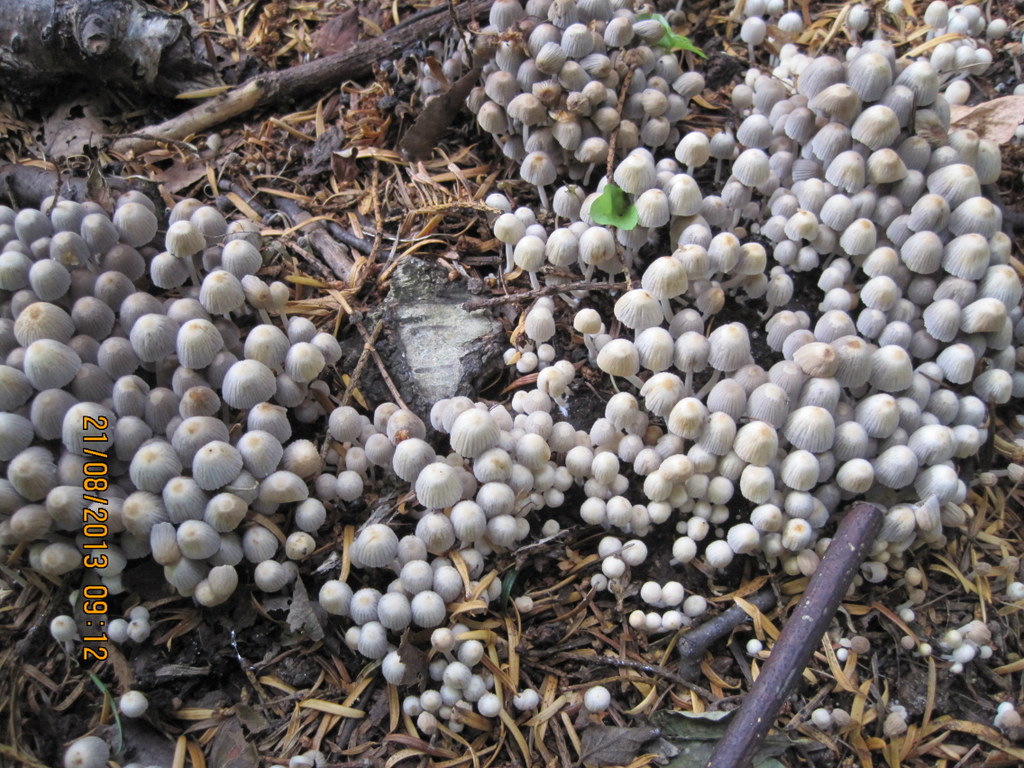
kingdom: Fungi
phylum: Basidiomycota
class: Agaricomycetes
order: Agaricales
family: Psathyrellaceae
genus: Coprinellus
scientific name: Coprinellus disseminatus
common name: bredsået blækhat
